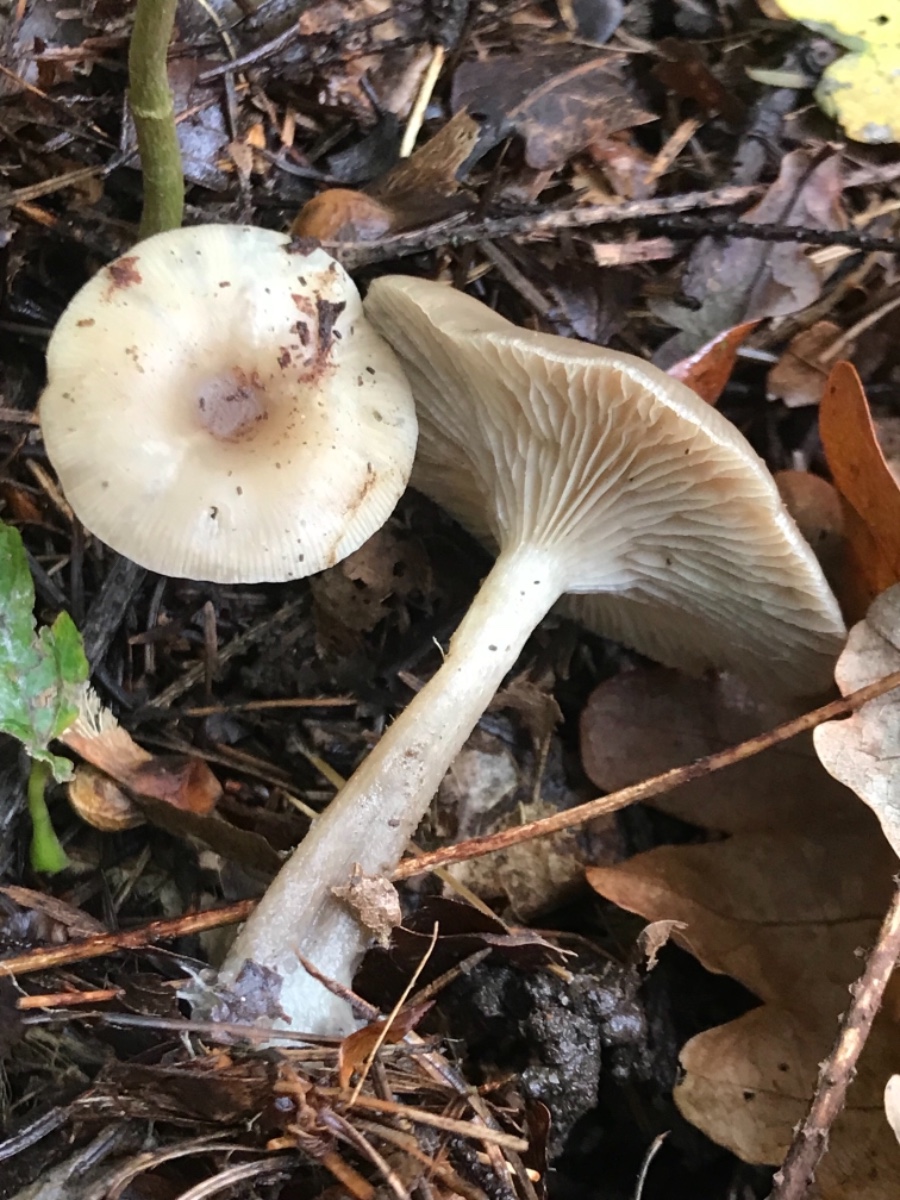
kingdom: Fungi
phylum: Basidiomycota
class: Agaricomycetes
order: Agaricales
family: Tricholomataceae
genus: Clitocybe
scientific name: Clitocybe metachroa
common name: grå tragthat
